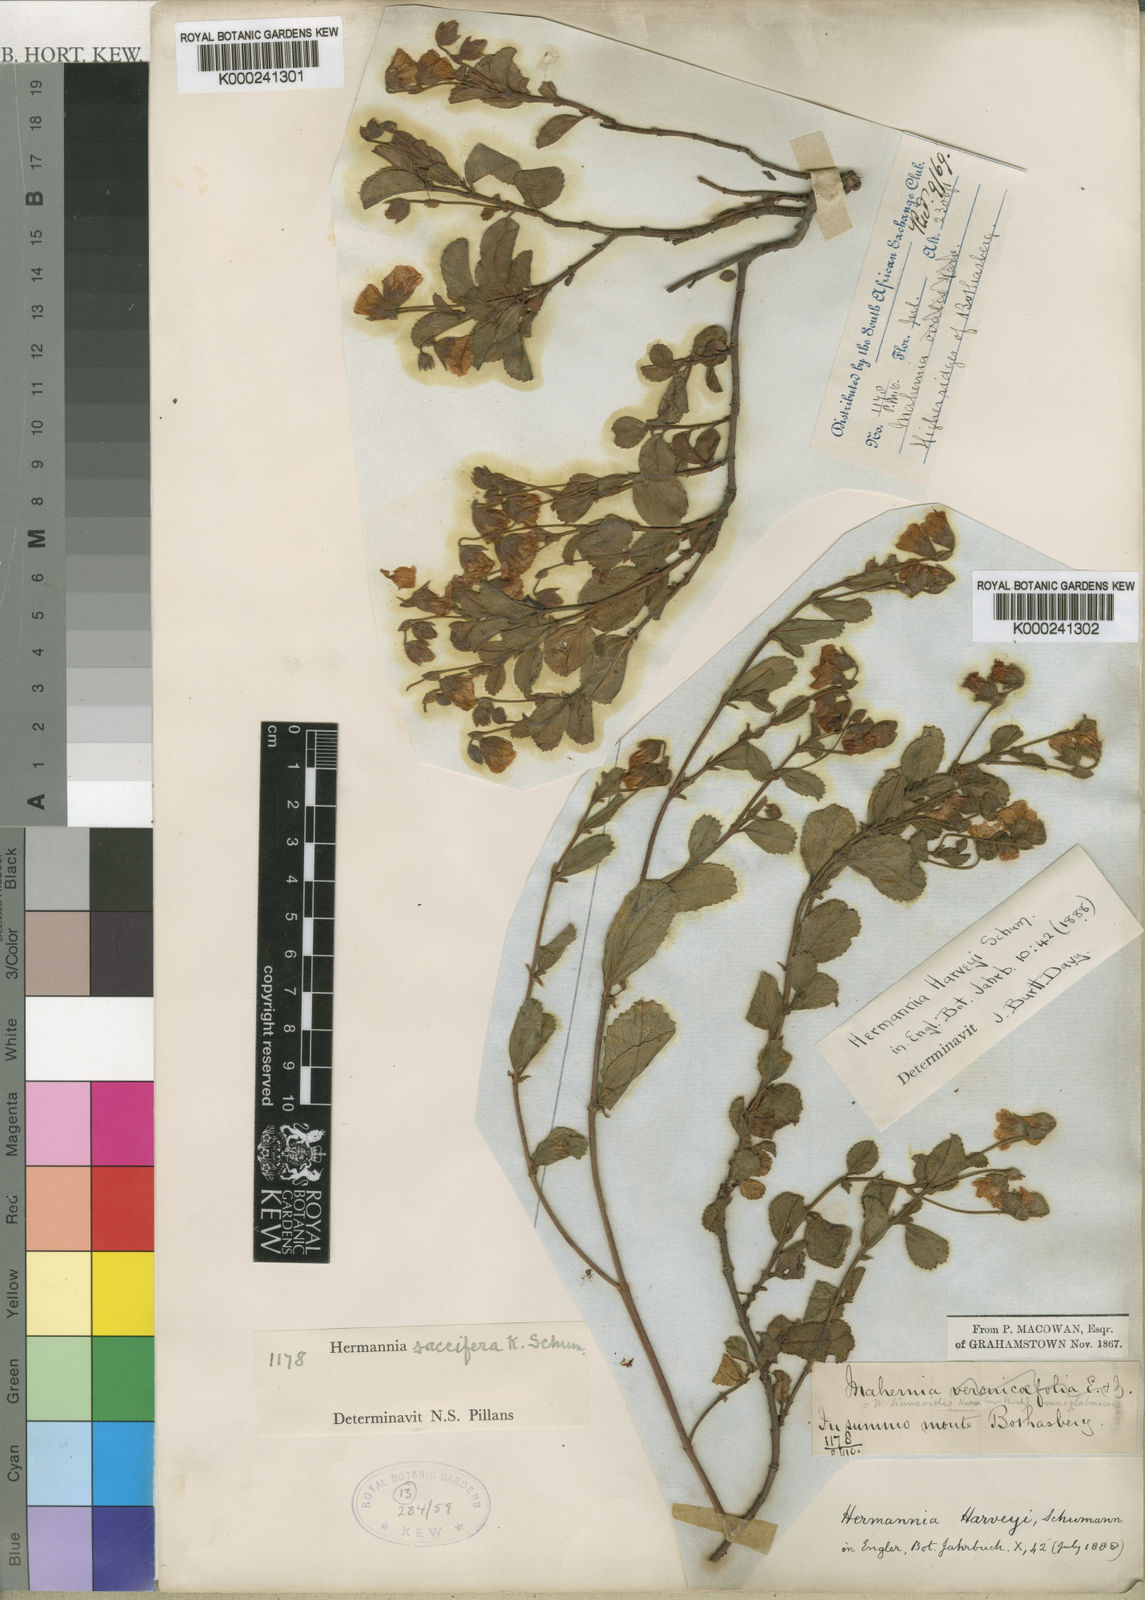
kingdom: Plantae
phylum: Tracheophyta
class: Magnoliopsida
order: Malvales
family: Malvaceae
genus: Hermannia
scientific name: Hermannia saccifera
